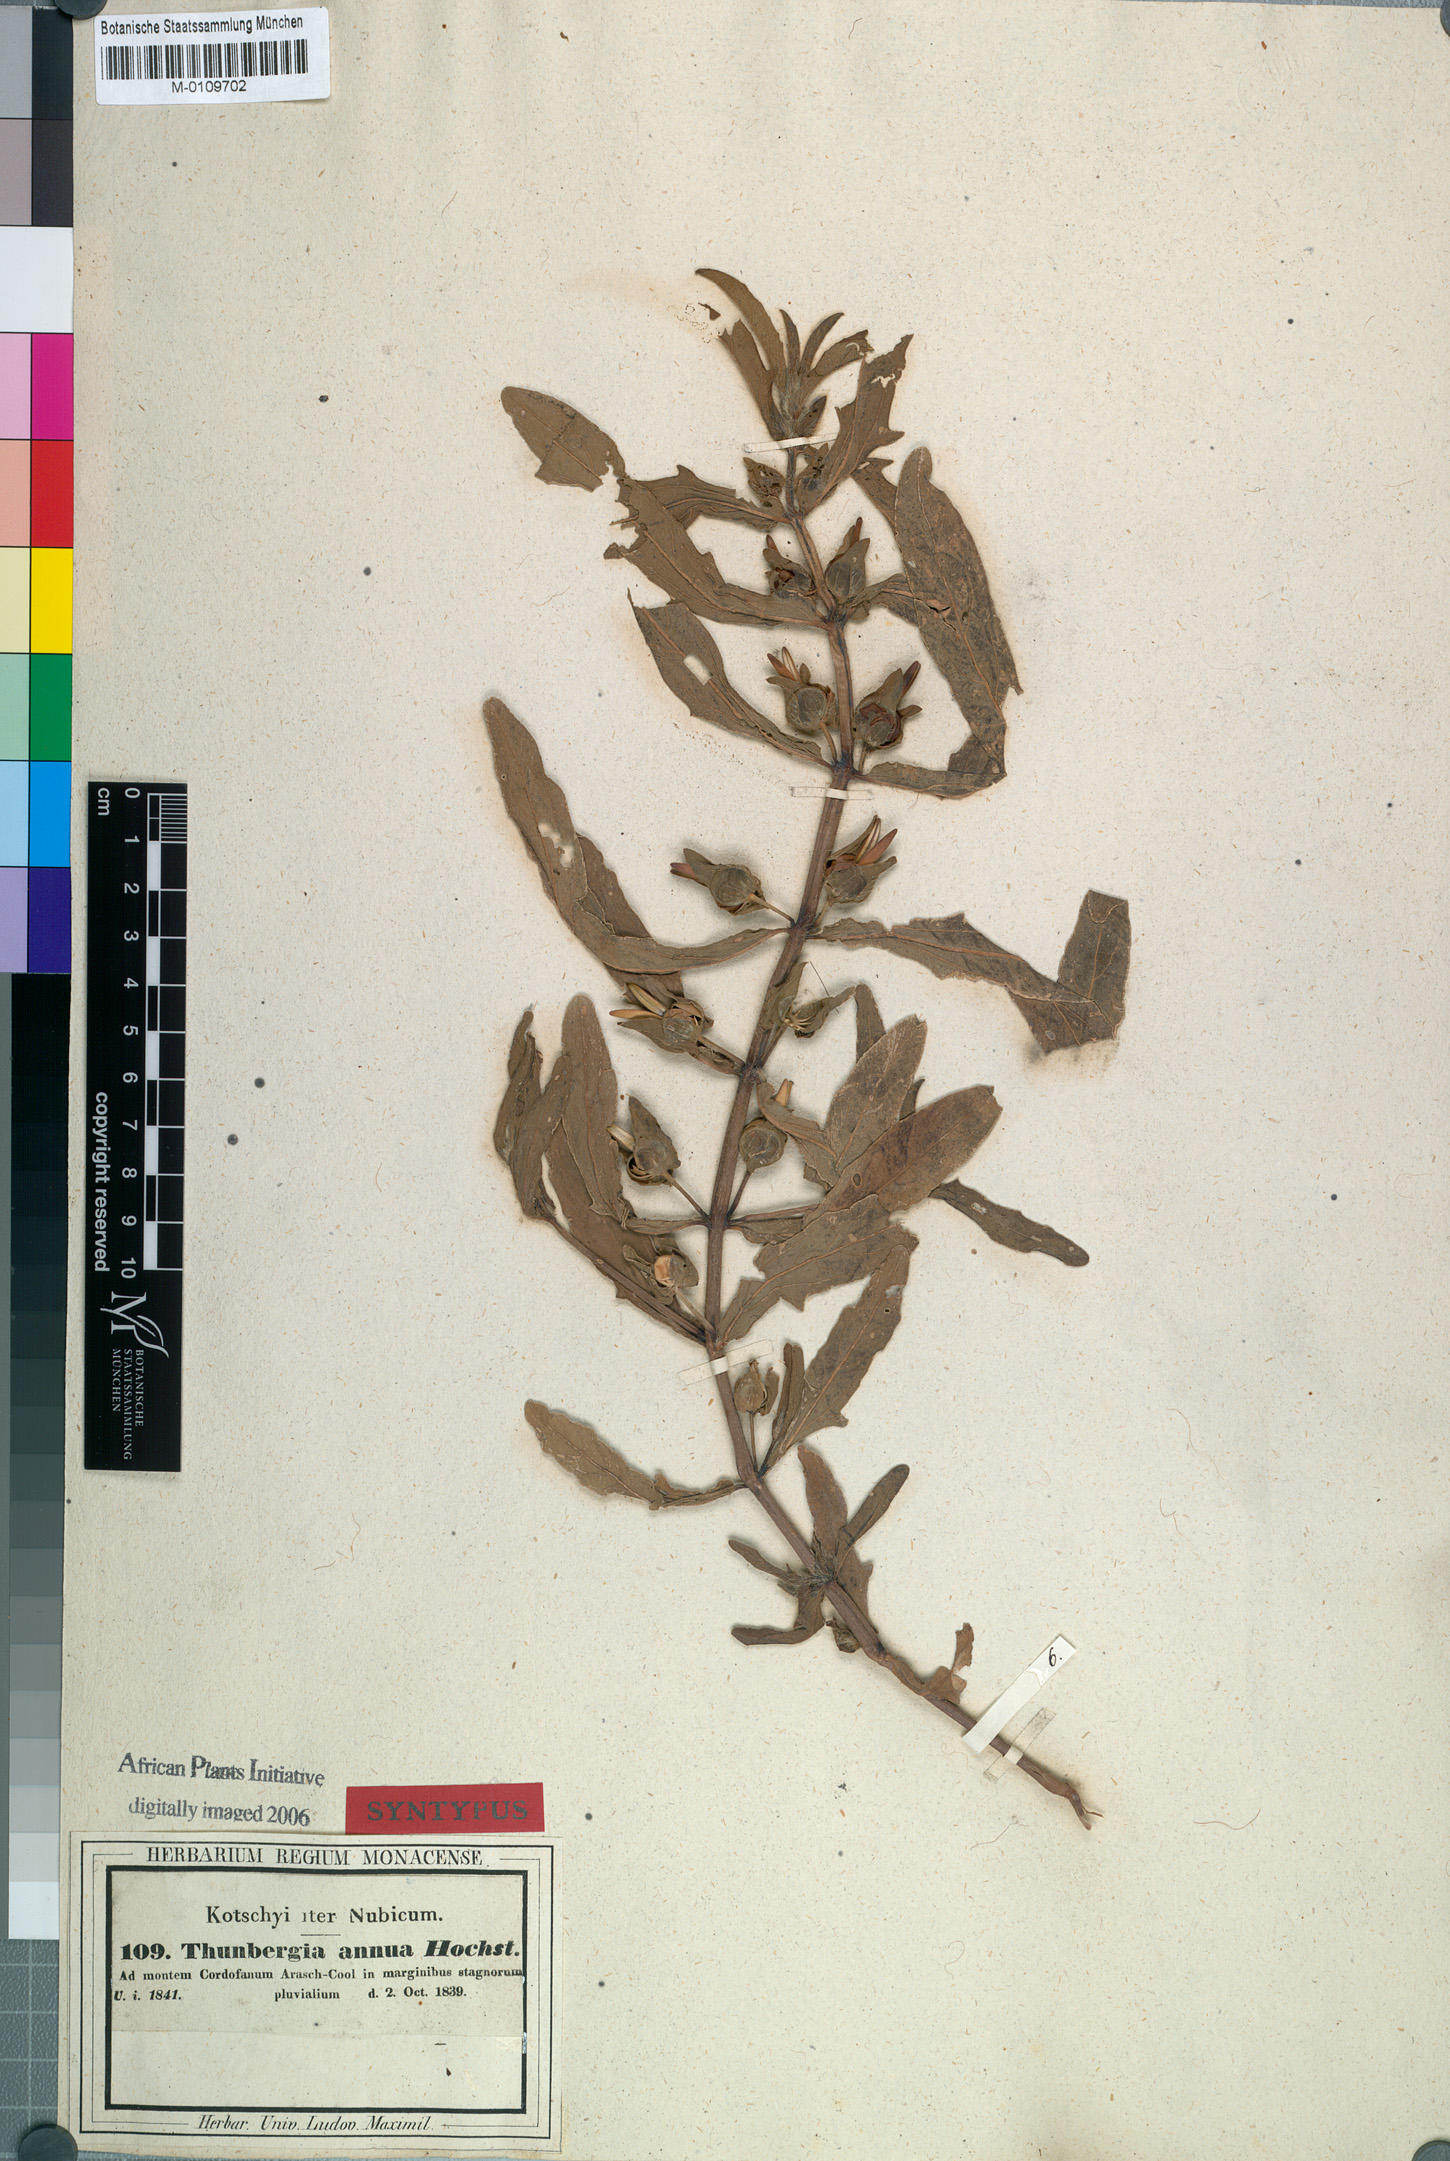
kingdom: Plantae
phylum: Tracheophyta
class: Magnoliopsida
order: Lamiales
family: Acanthaceae
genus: Thunbergia
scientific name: Thunbergia annua
